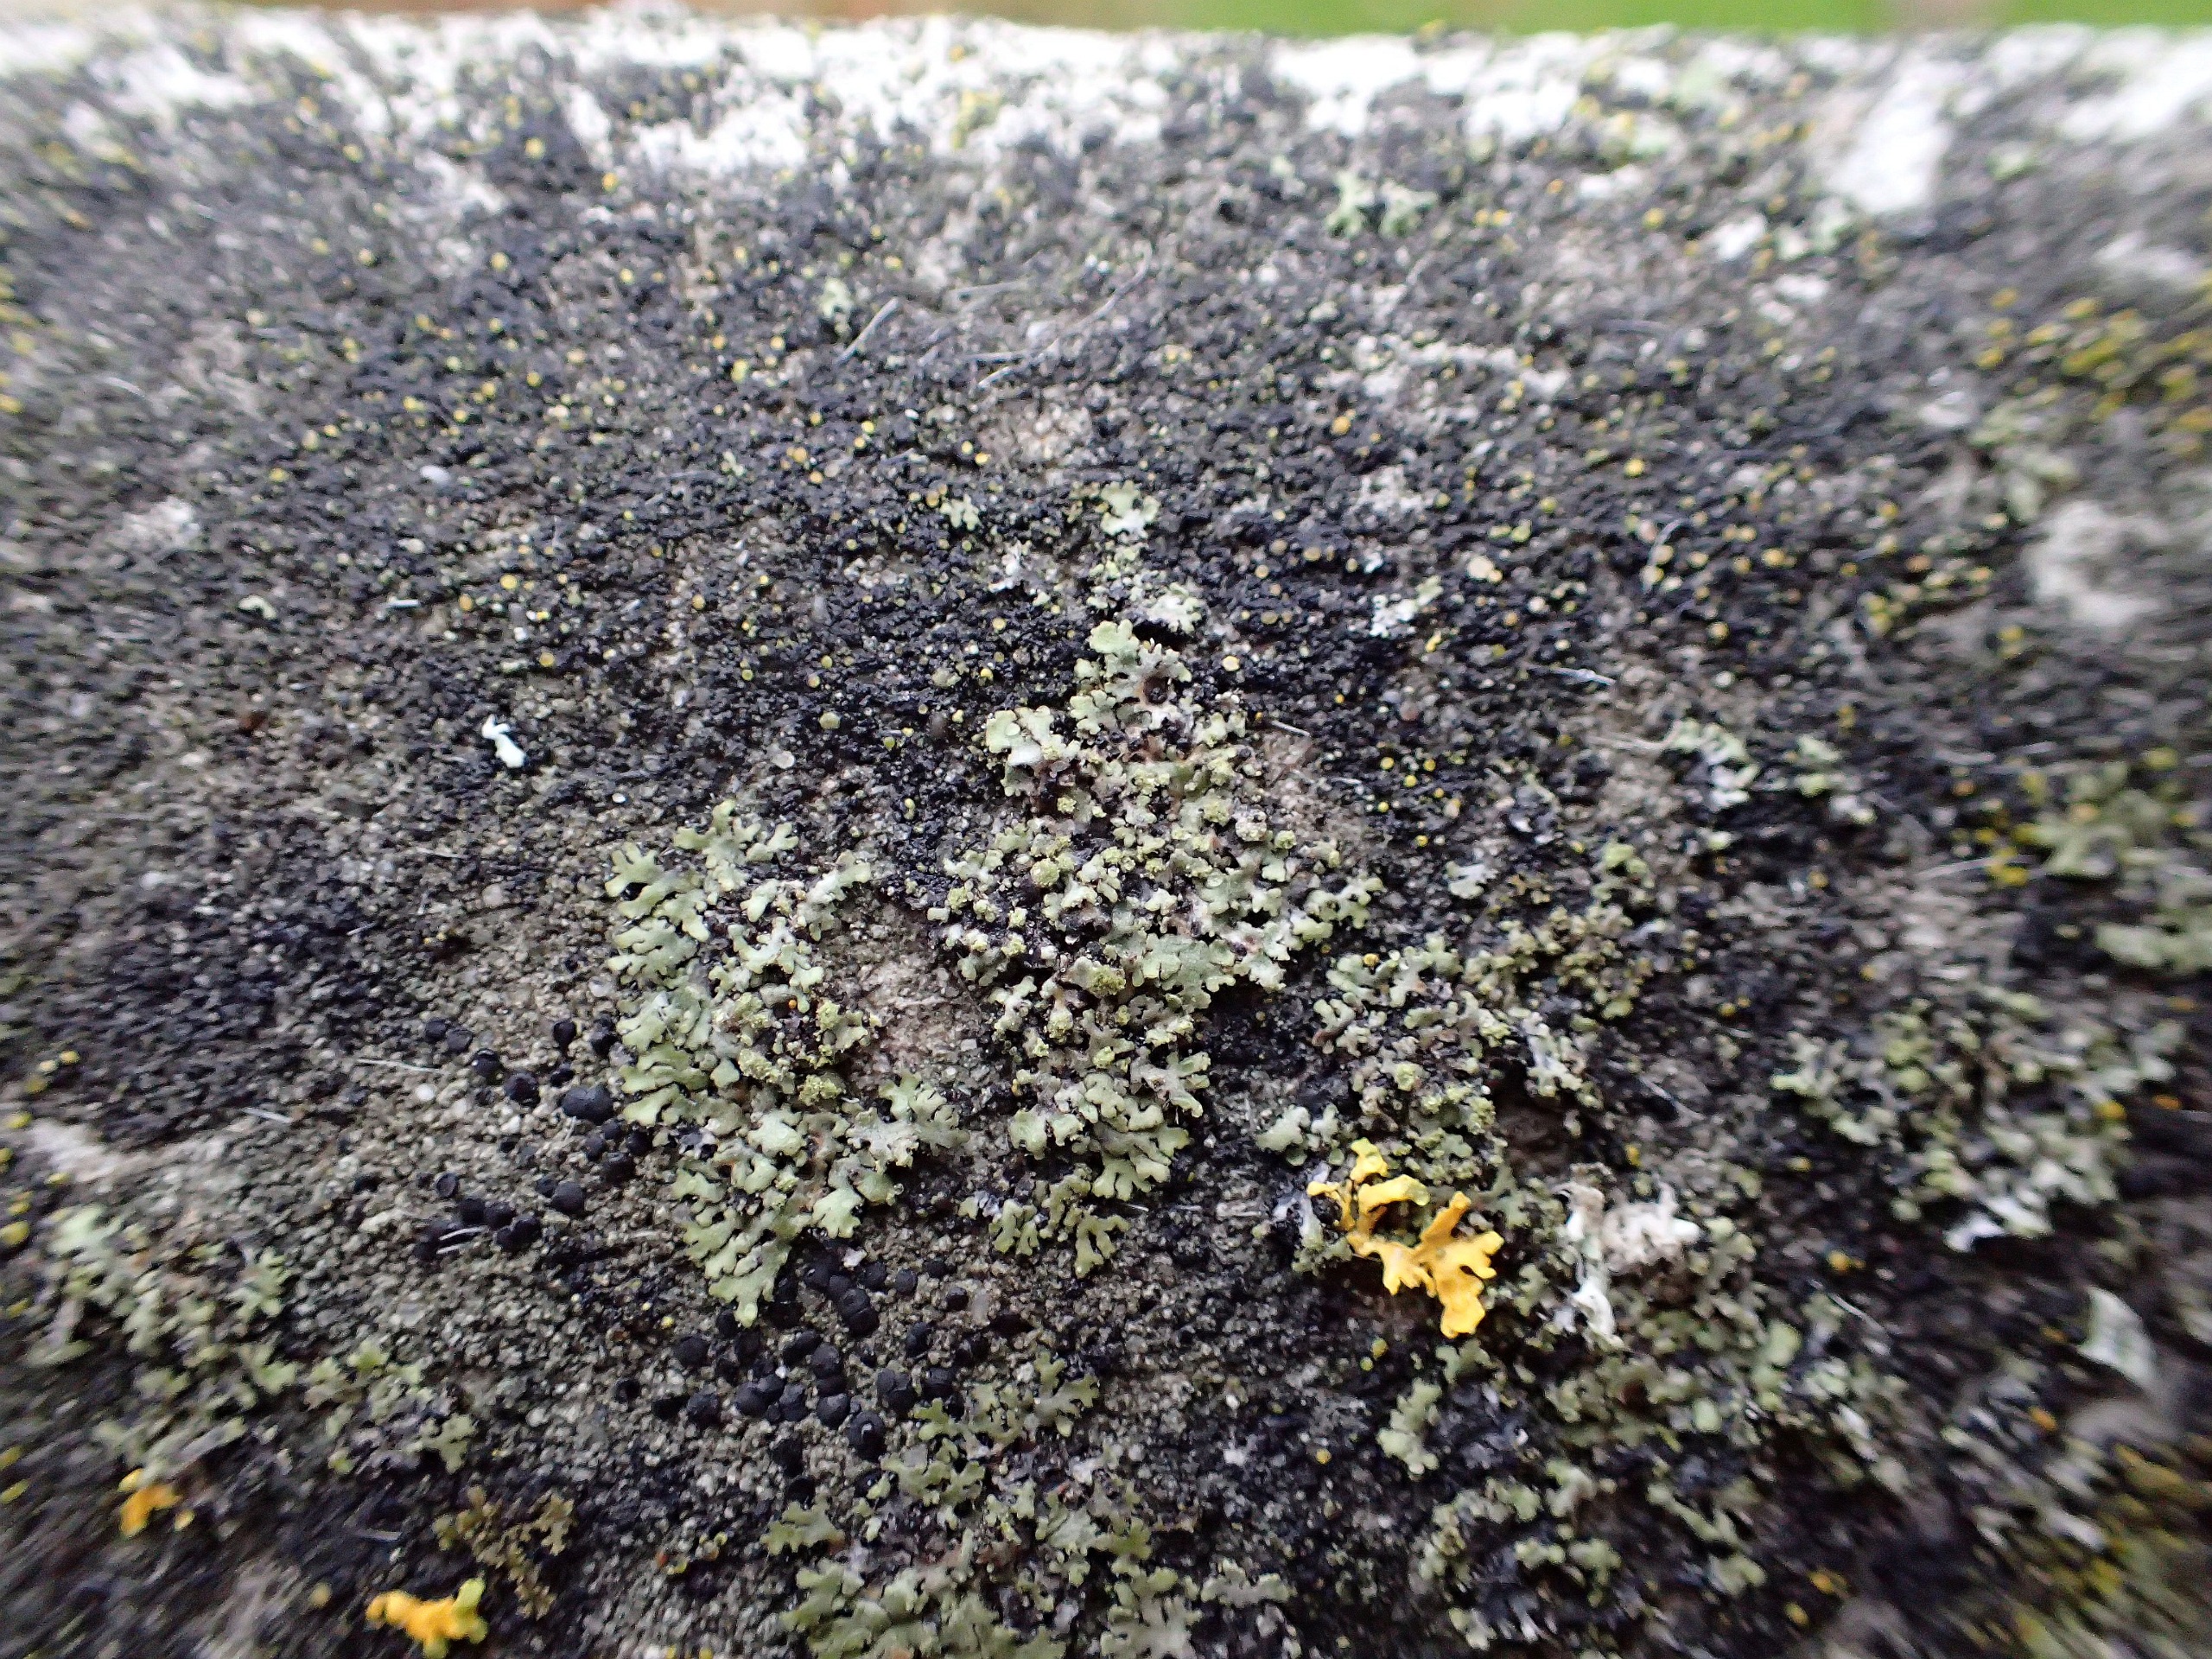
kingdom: Fungi
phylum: Ascomycota
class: Lecanoromycetes
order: Caliciales
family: Physciaceae
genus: Phaeophyscia
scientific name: Phaeophyscia orbicularis
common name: Grågrøn rosetlav
